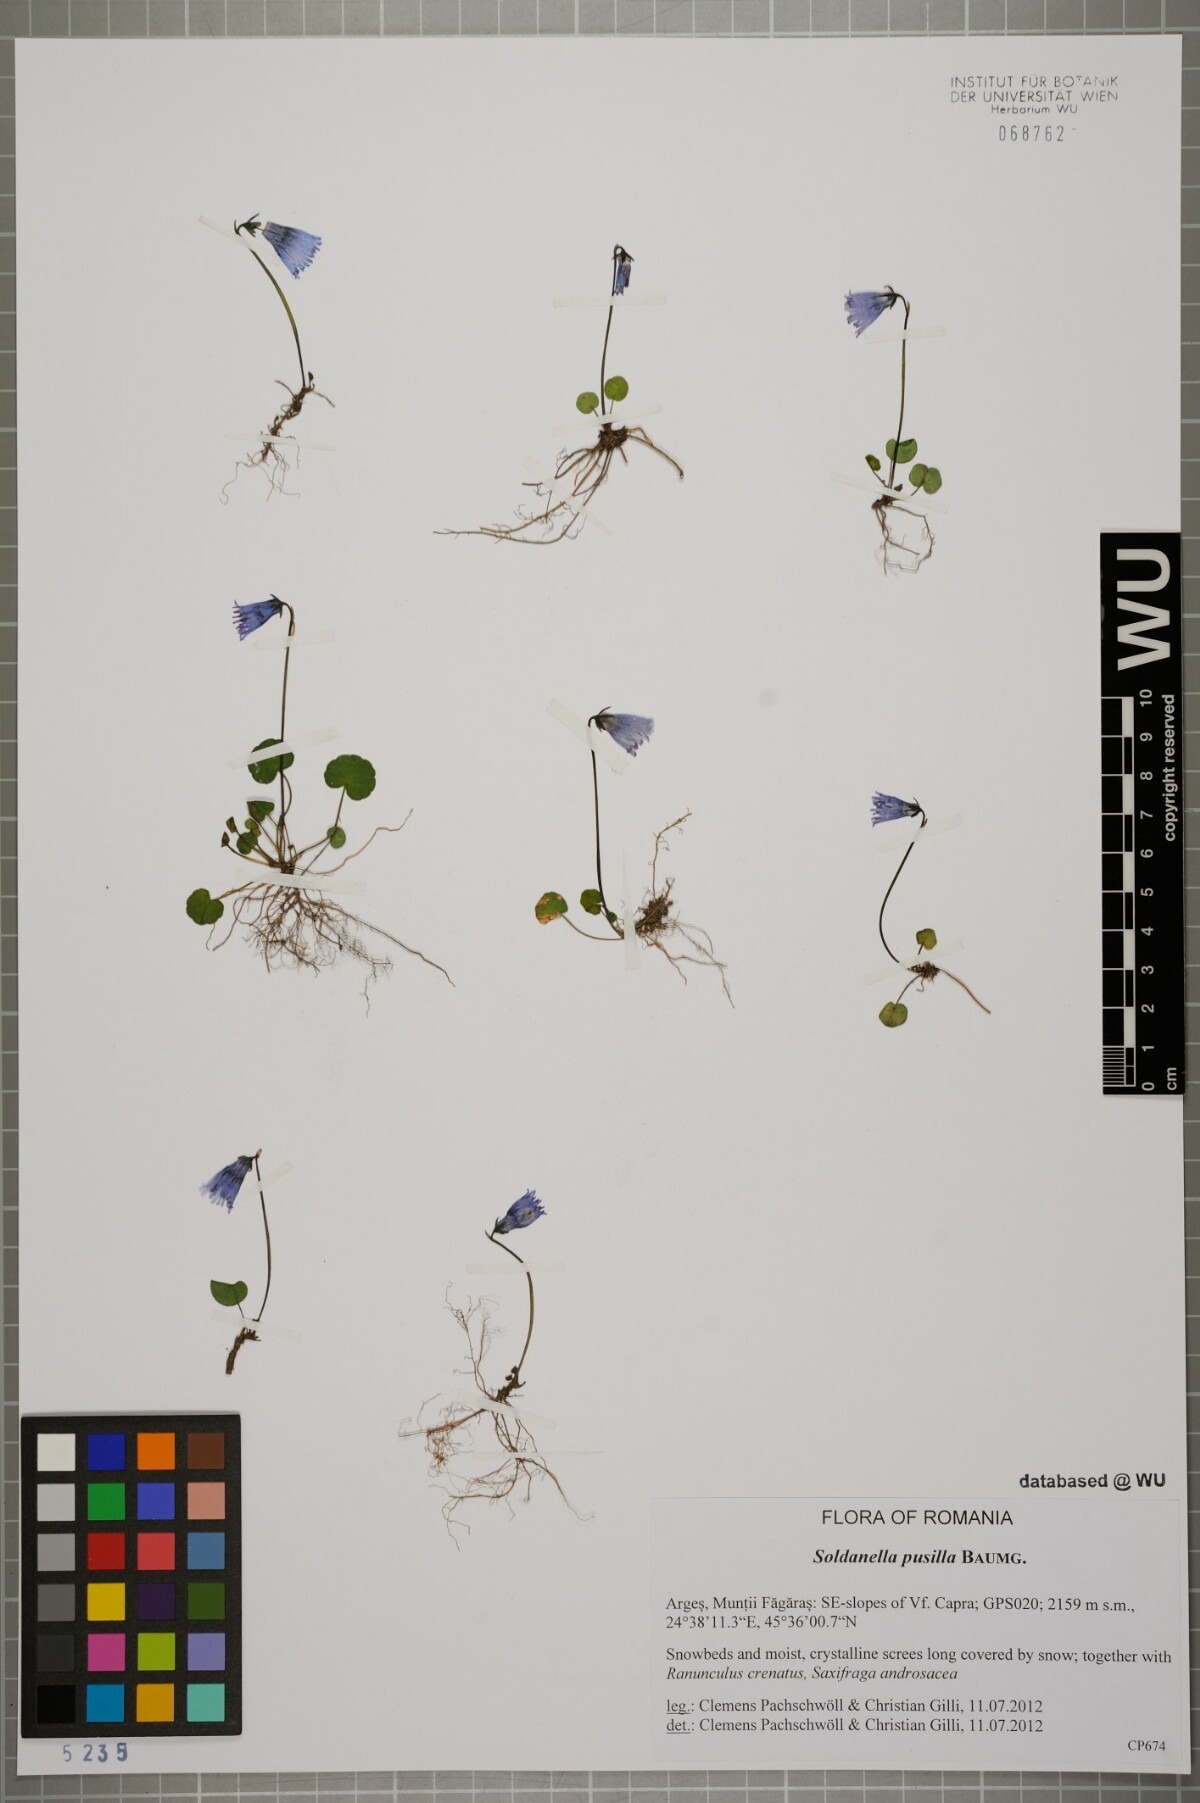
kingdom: Plantae
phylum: Tracheophyta
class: Magnoliopsida
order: Ericales
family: Primulaceae
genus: Soldanella
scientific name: Soldanella pusilla
